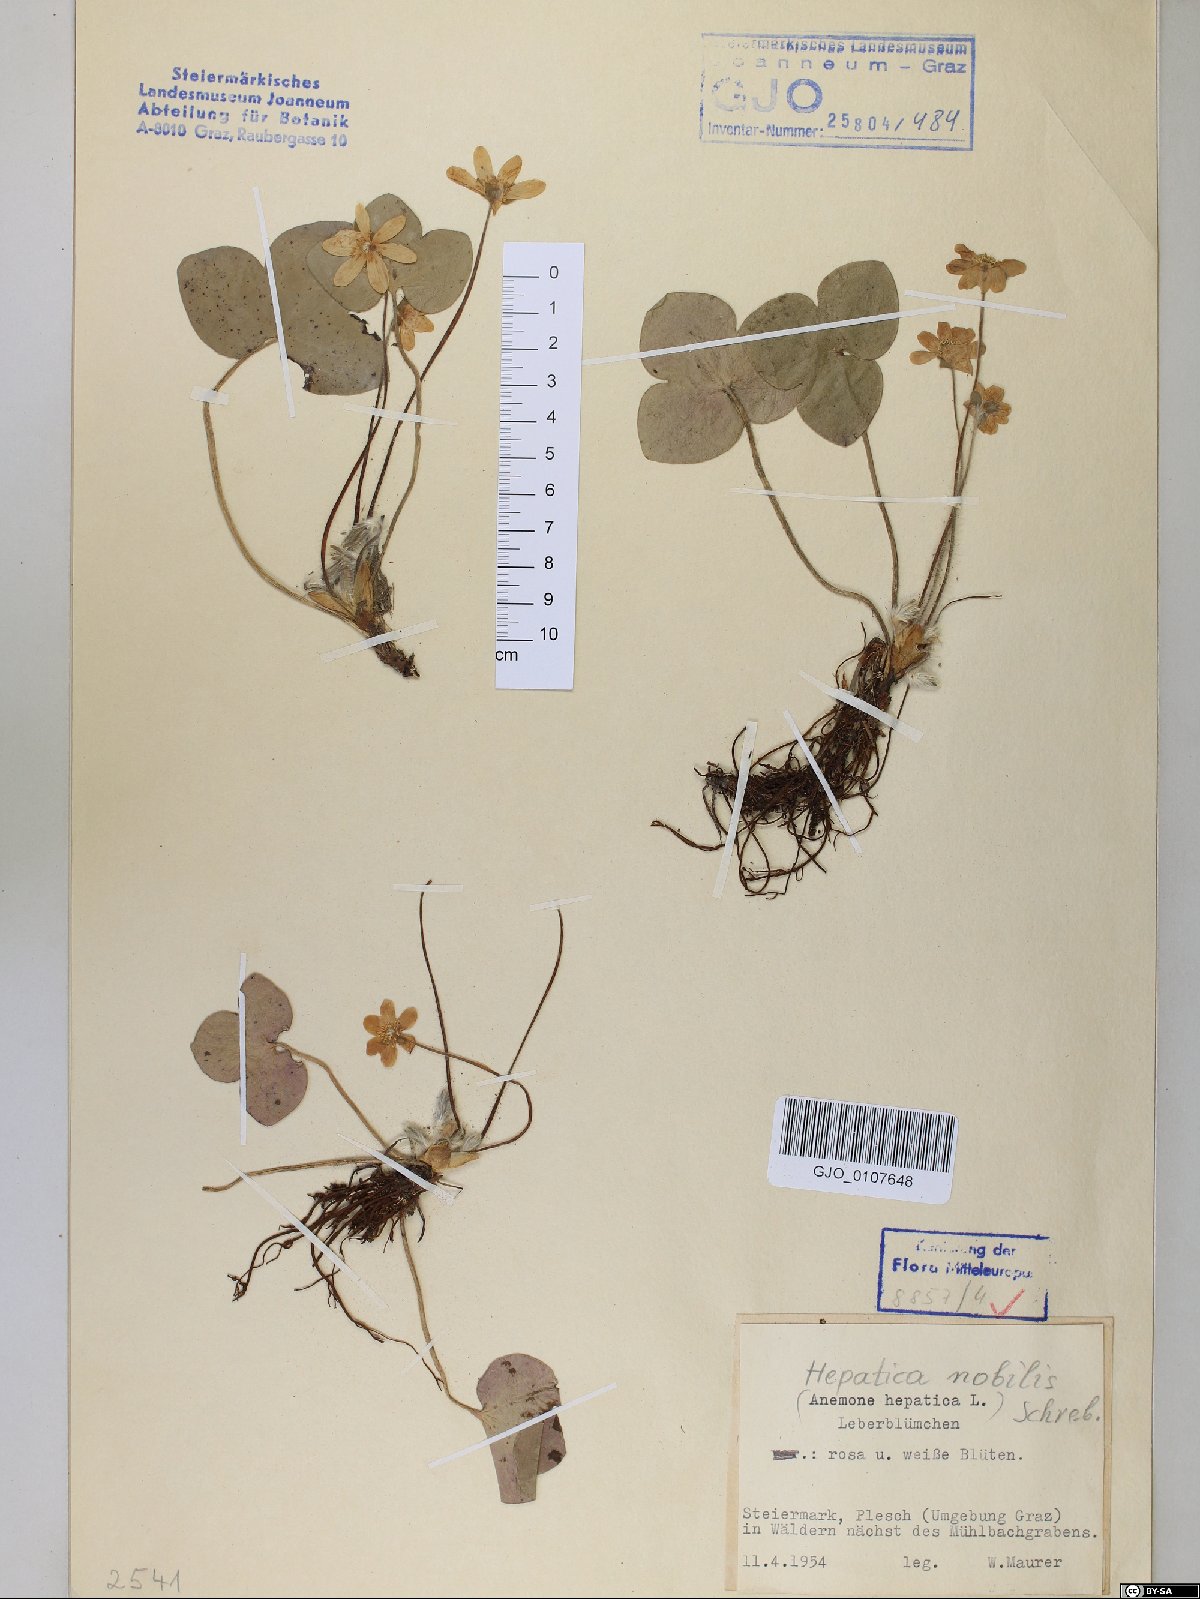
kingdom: Plantae
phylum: Tracheophyta
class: Magnoliopsida
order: Ranunculales
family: Ranunculaceae
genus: Hepatica
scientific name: Hepatica nobilis
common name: Liverleaf
